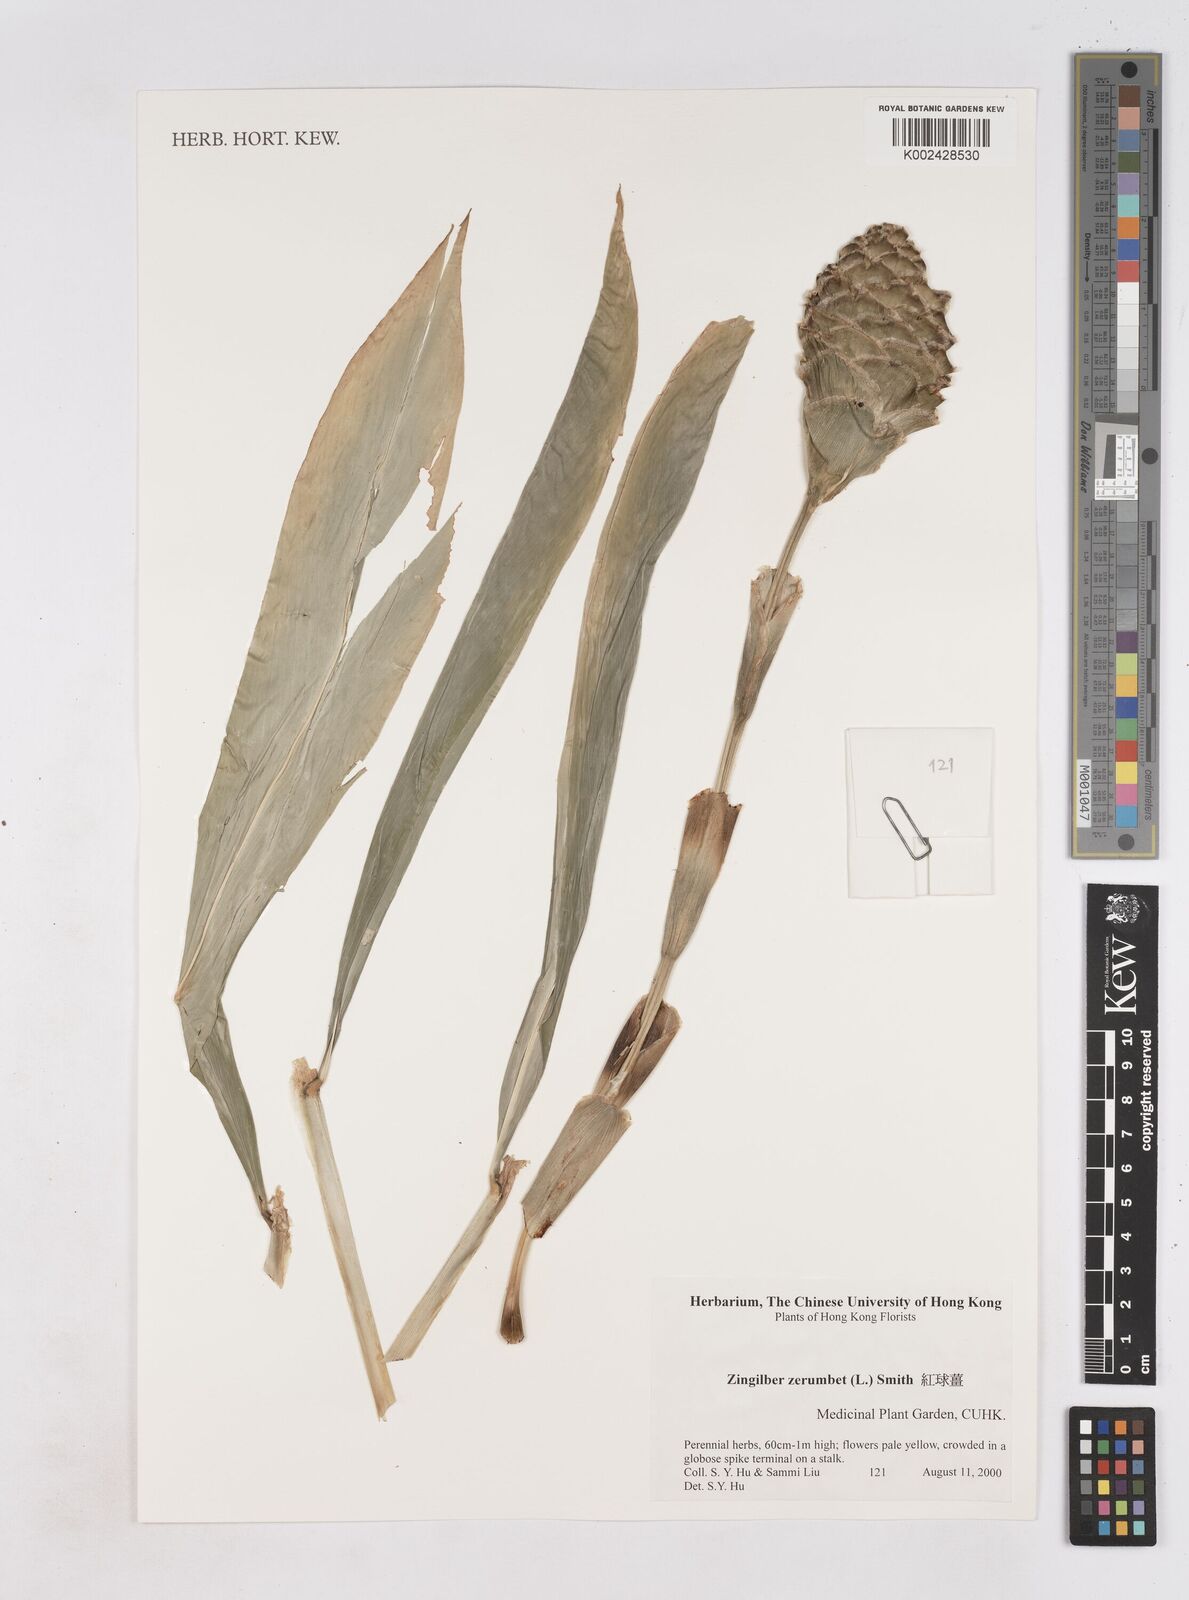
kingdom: Plantae
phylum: Tracheophyta
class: Liliopsida
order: Zingiberales
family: Zingiberaceae
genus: Zingiber
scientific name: Zingiber zerumbet
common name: Bitter ginger
